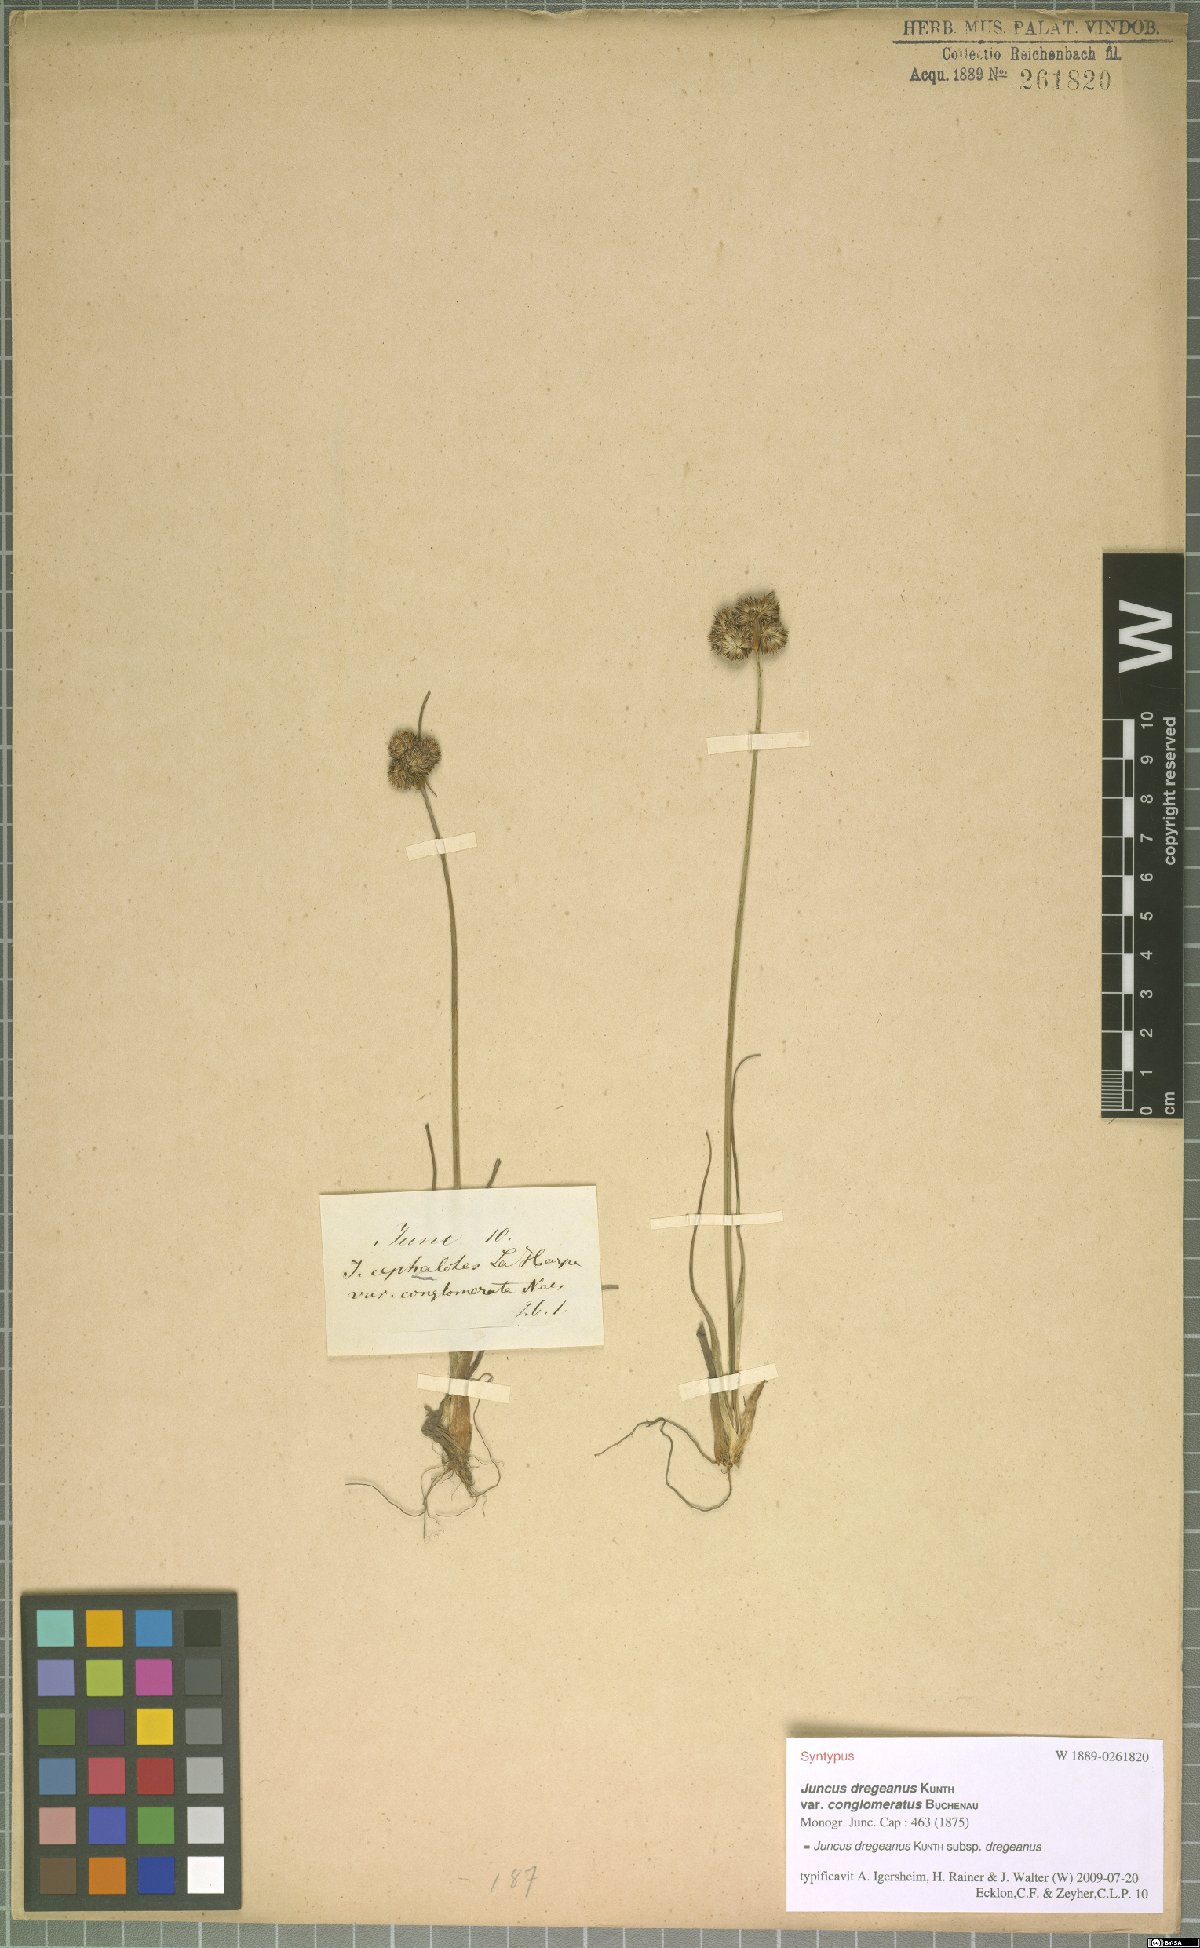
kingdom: Plantae
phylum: Tracheophyta
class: Liliopsida
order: Poales
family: Juncaceae
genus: Juncus
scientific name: Juncus dregeanus
